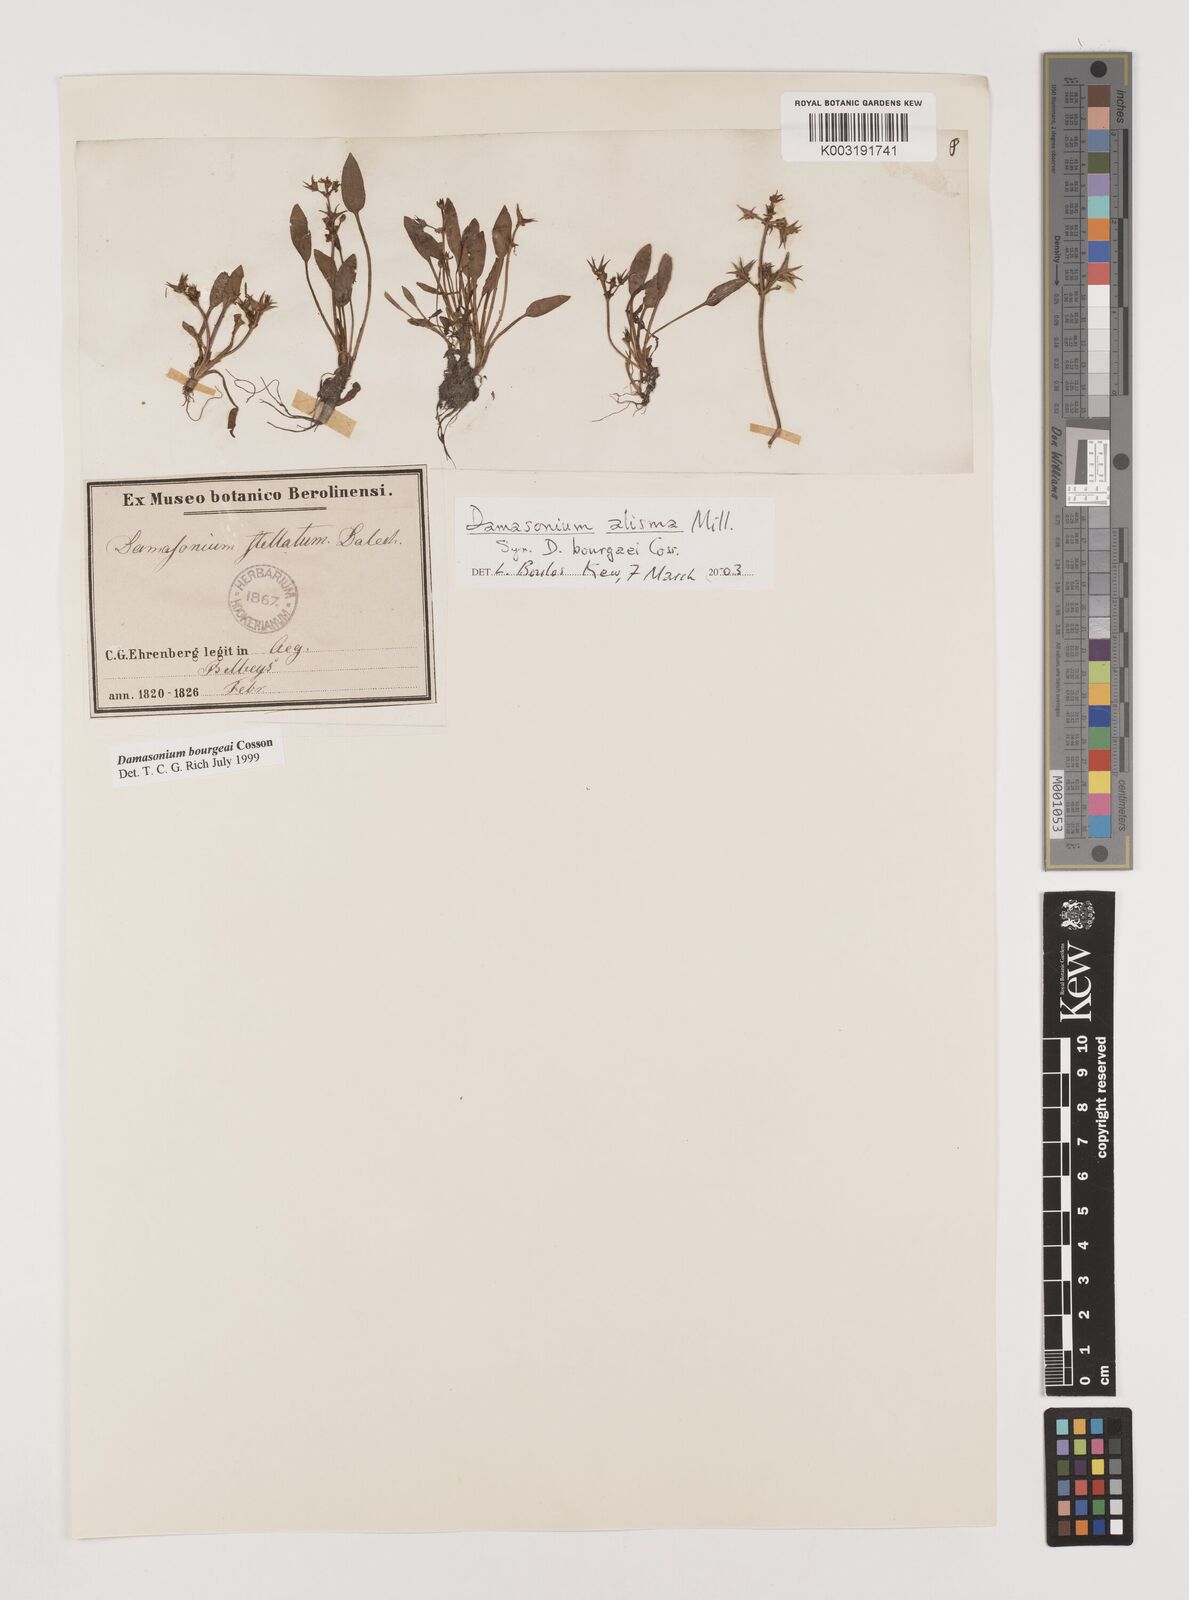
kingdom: Plantae
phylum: Tracheophyta
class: Liliopsida
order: Alismatales
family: Alismataceae
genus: Damasonium
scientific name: Damasonium alisma
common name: Starfruit
